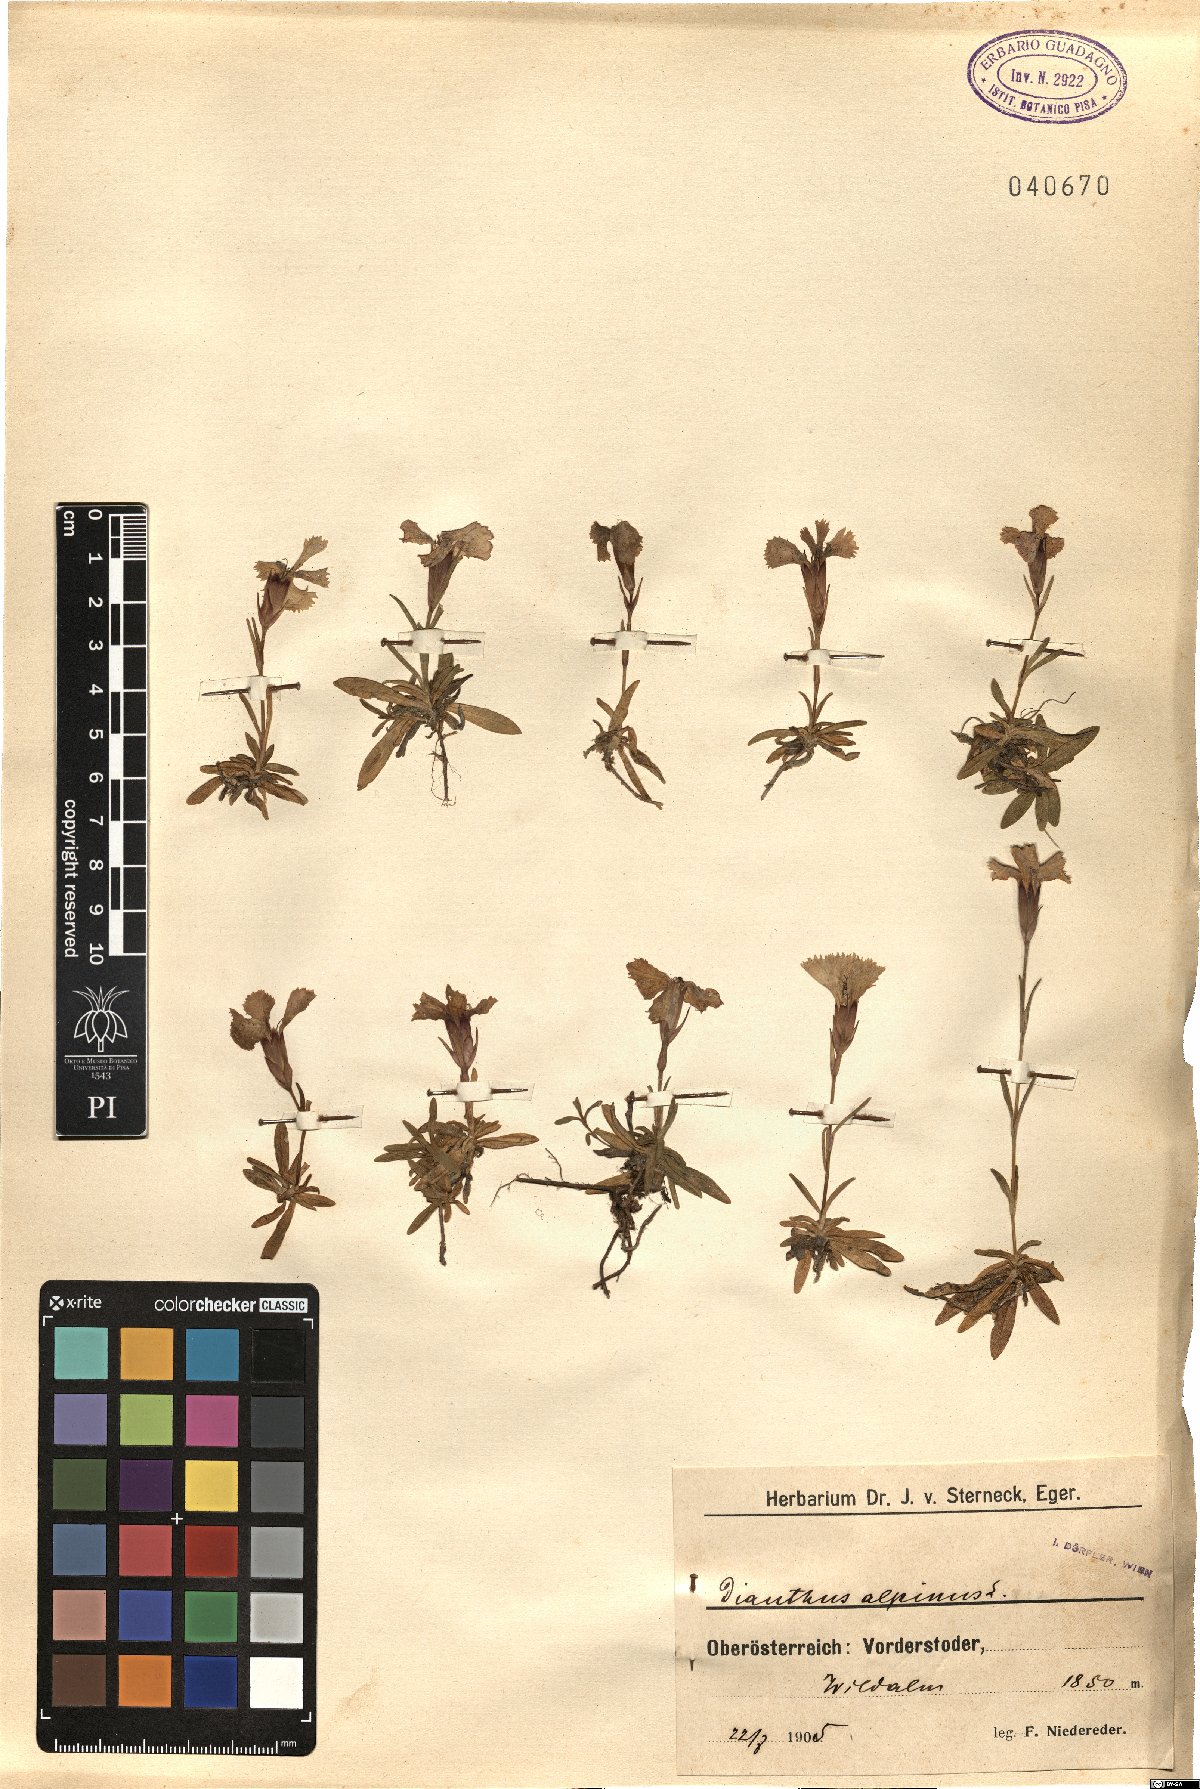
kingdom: Plantae
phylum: Tracheophyta
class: Magnoliopsida
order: Caryophyllales
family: Caryophyllaceae
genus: Dianthus
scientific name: Dianthus alpinus
